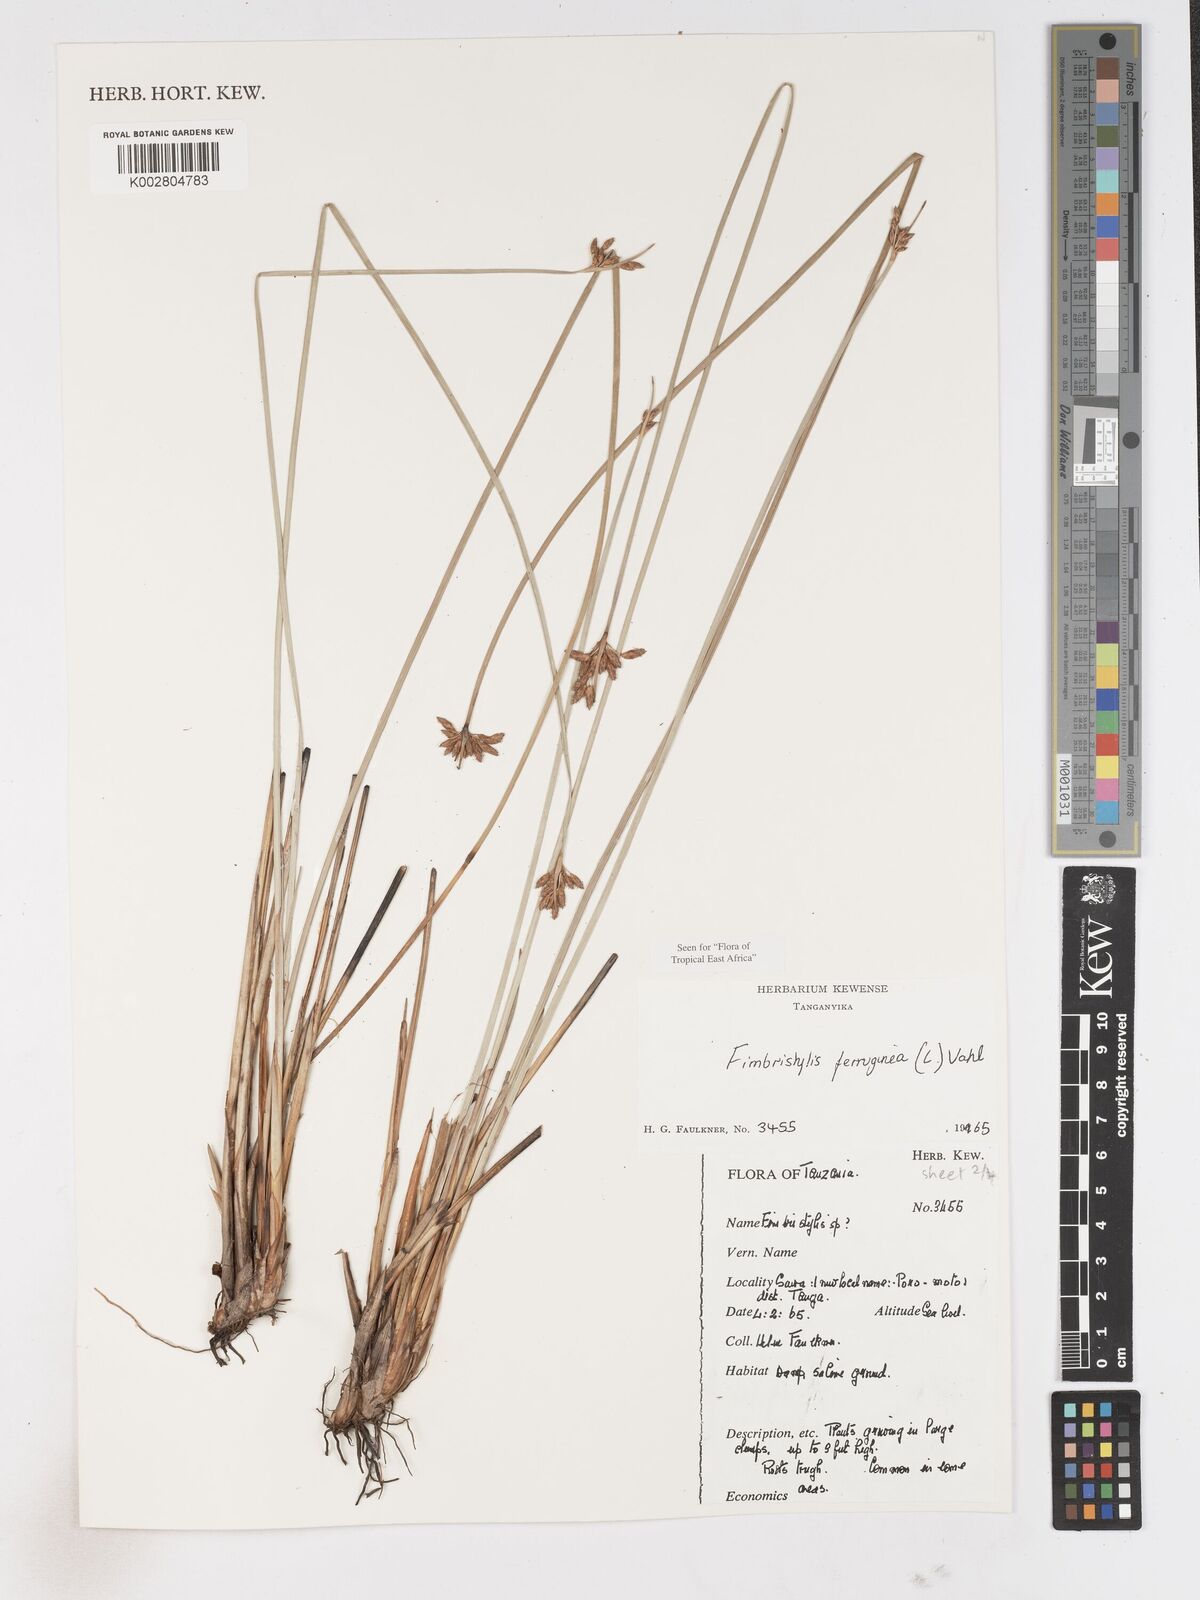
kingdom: Plantae
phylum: Tracheophyta
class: Liliopsida
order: Poales
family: Cyperaceae
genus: Fimbristylis
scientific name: Fimbristylis ferruginea
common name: West indian fimbry
